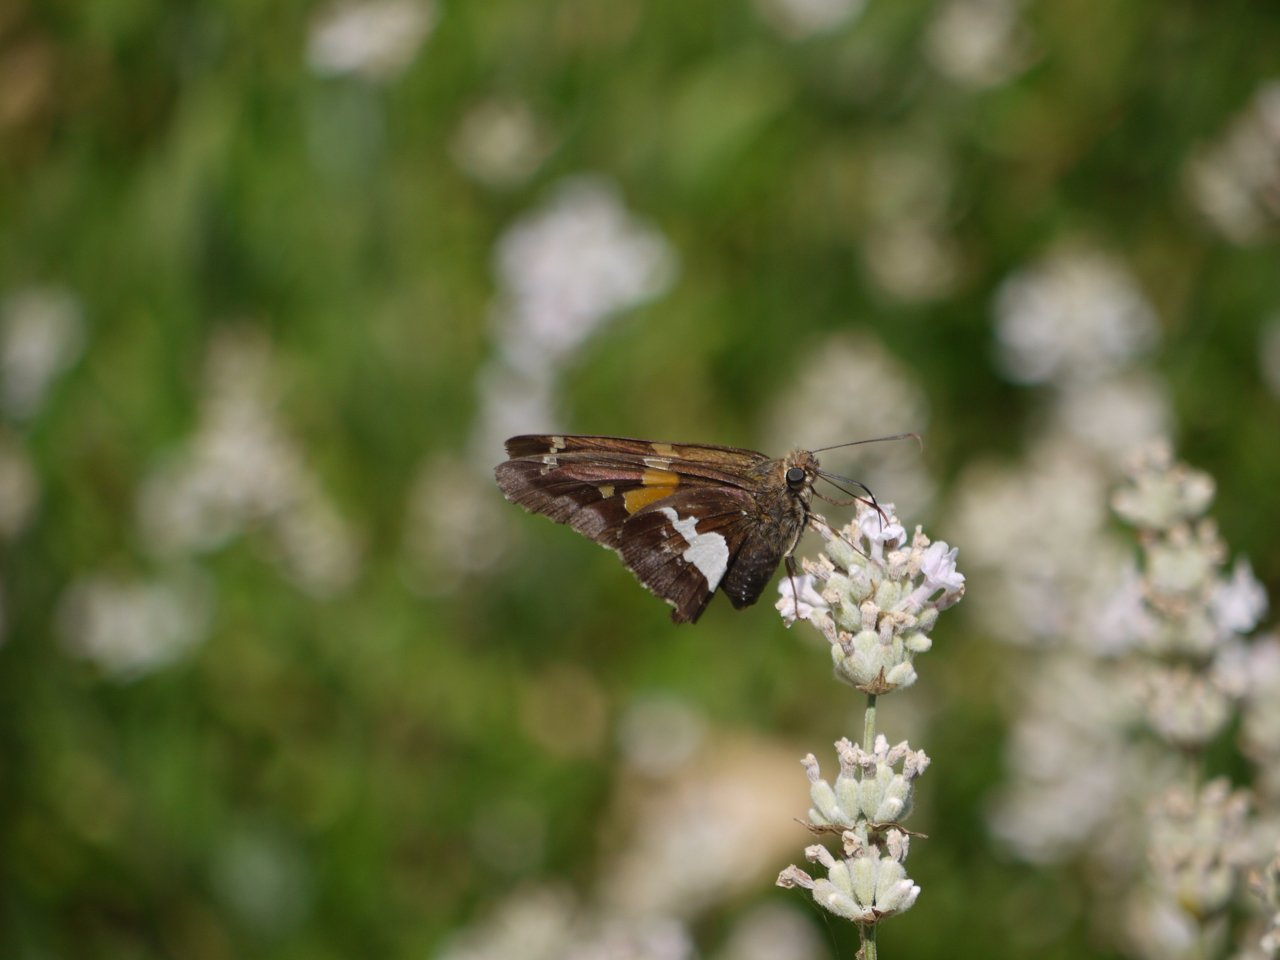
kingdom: Animalia
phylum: Arthropoda
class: Insecta
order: Lepidoptera
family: Hesperiidae
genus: Epargyreus
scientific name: Epargyreus clarus
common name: Silver-spotted Skipper
